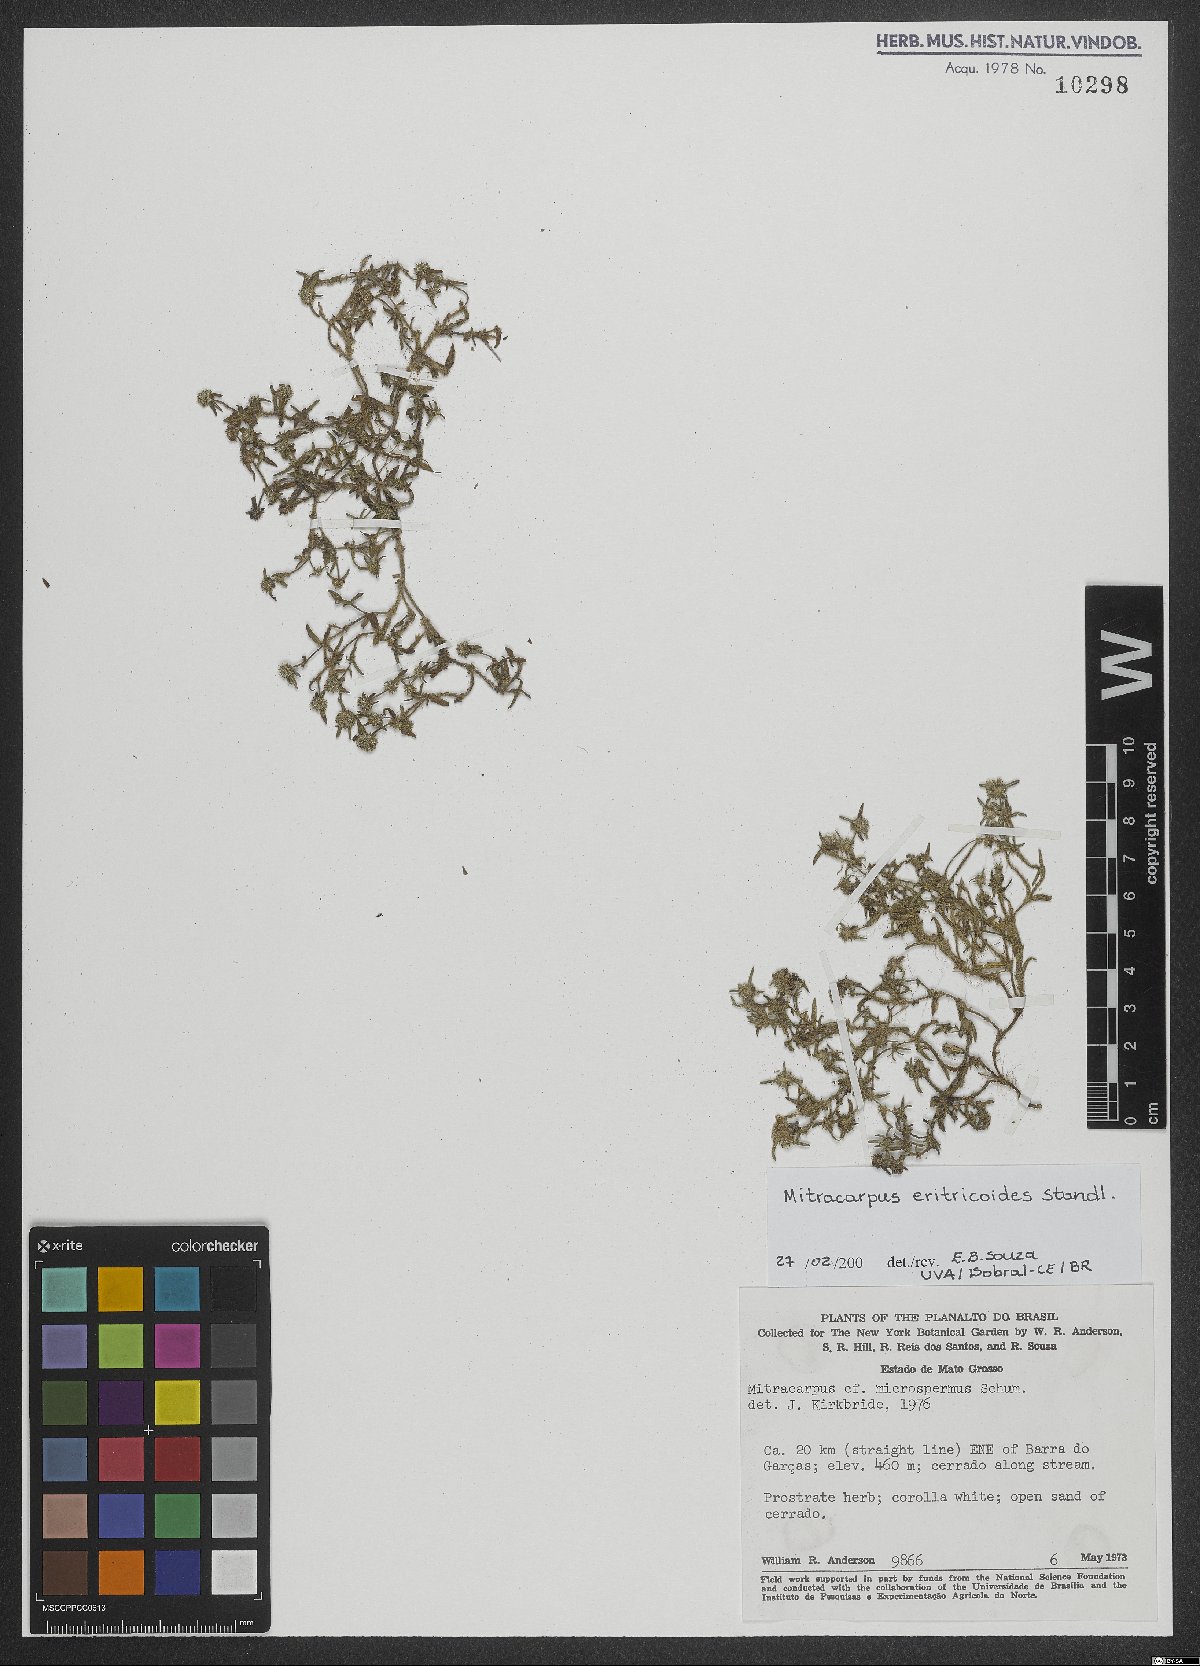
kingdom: Plantae
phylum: Tracheophyta
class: Magnoliopsida
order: Gentianales
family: Rubiaceae
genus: Mitracarpus
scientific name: Mitracarpus eritrichoides
